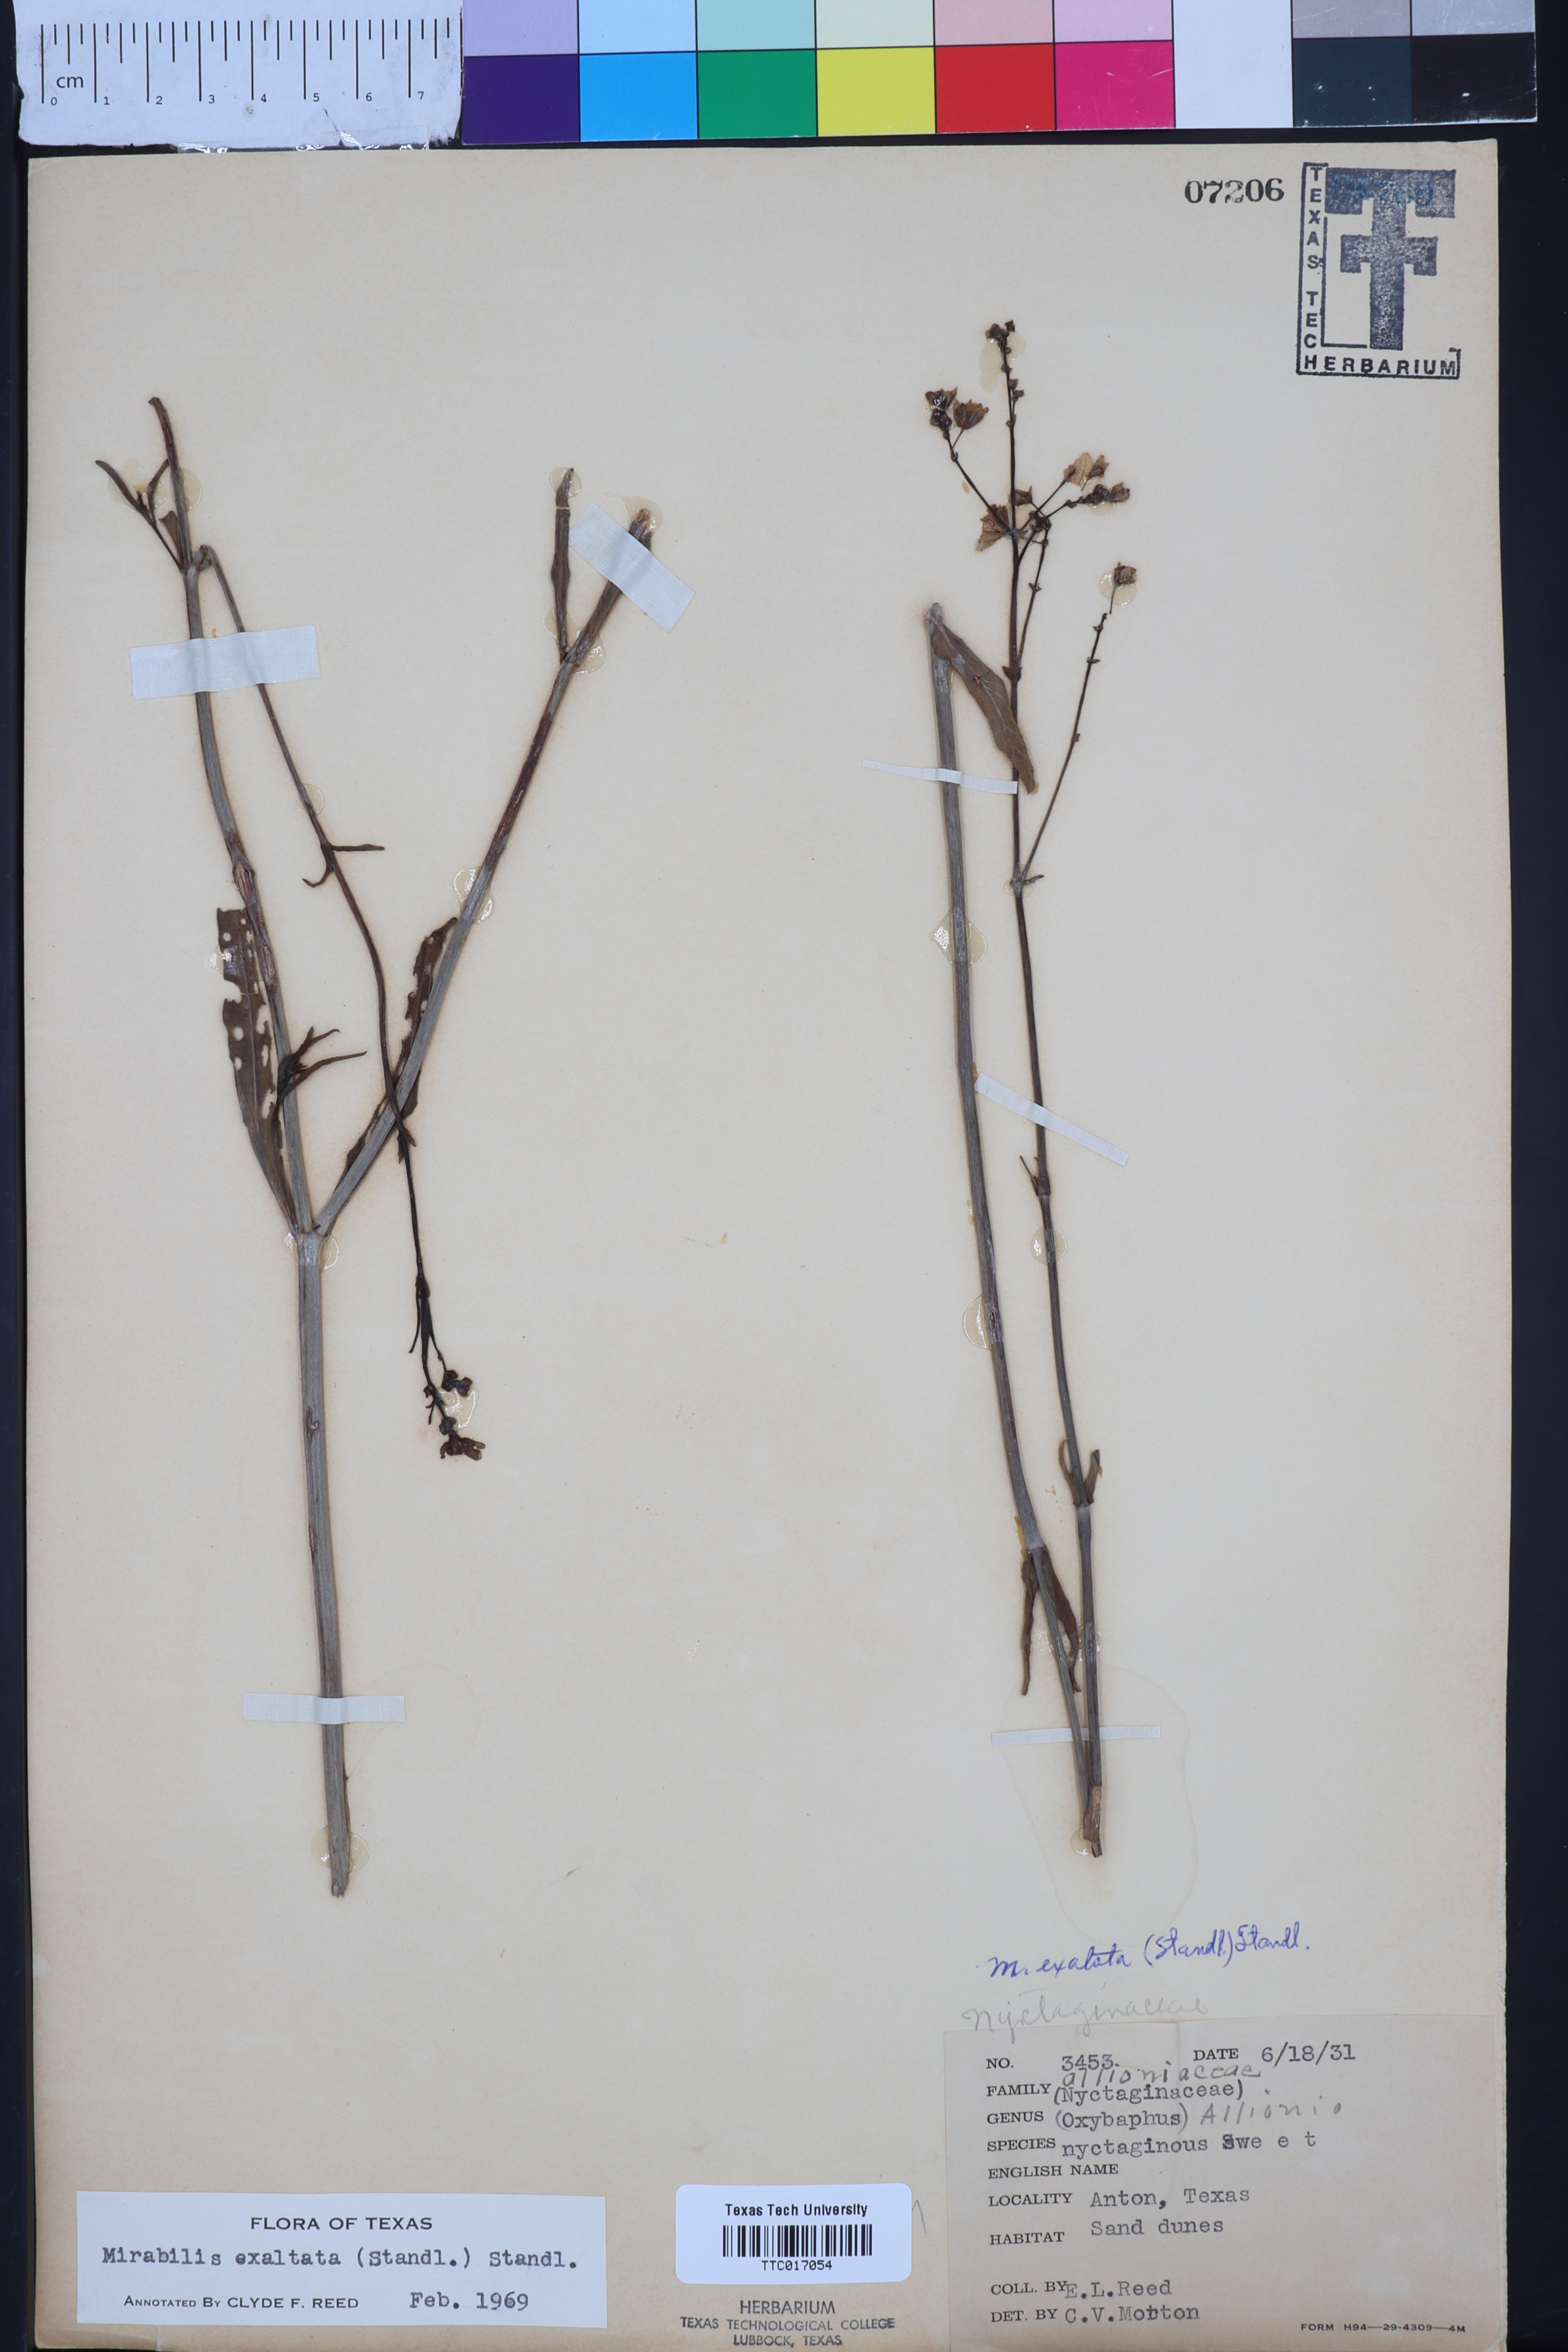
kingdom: Plantae
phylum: Tracheophyta
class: Magnoliopsida
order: Caryophyllales
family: Nyctaginaceae
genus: Mirabilis
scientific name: Mirabilis glabra
